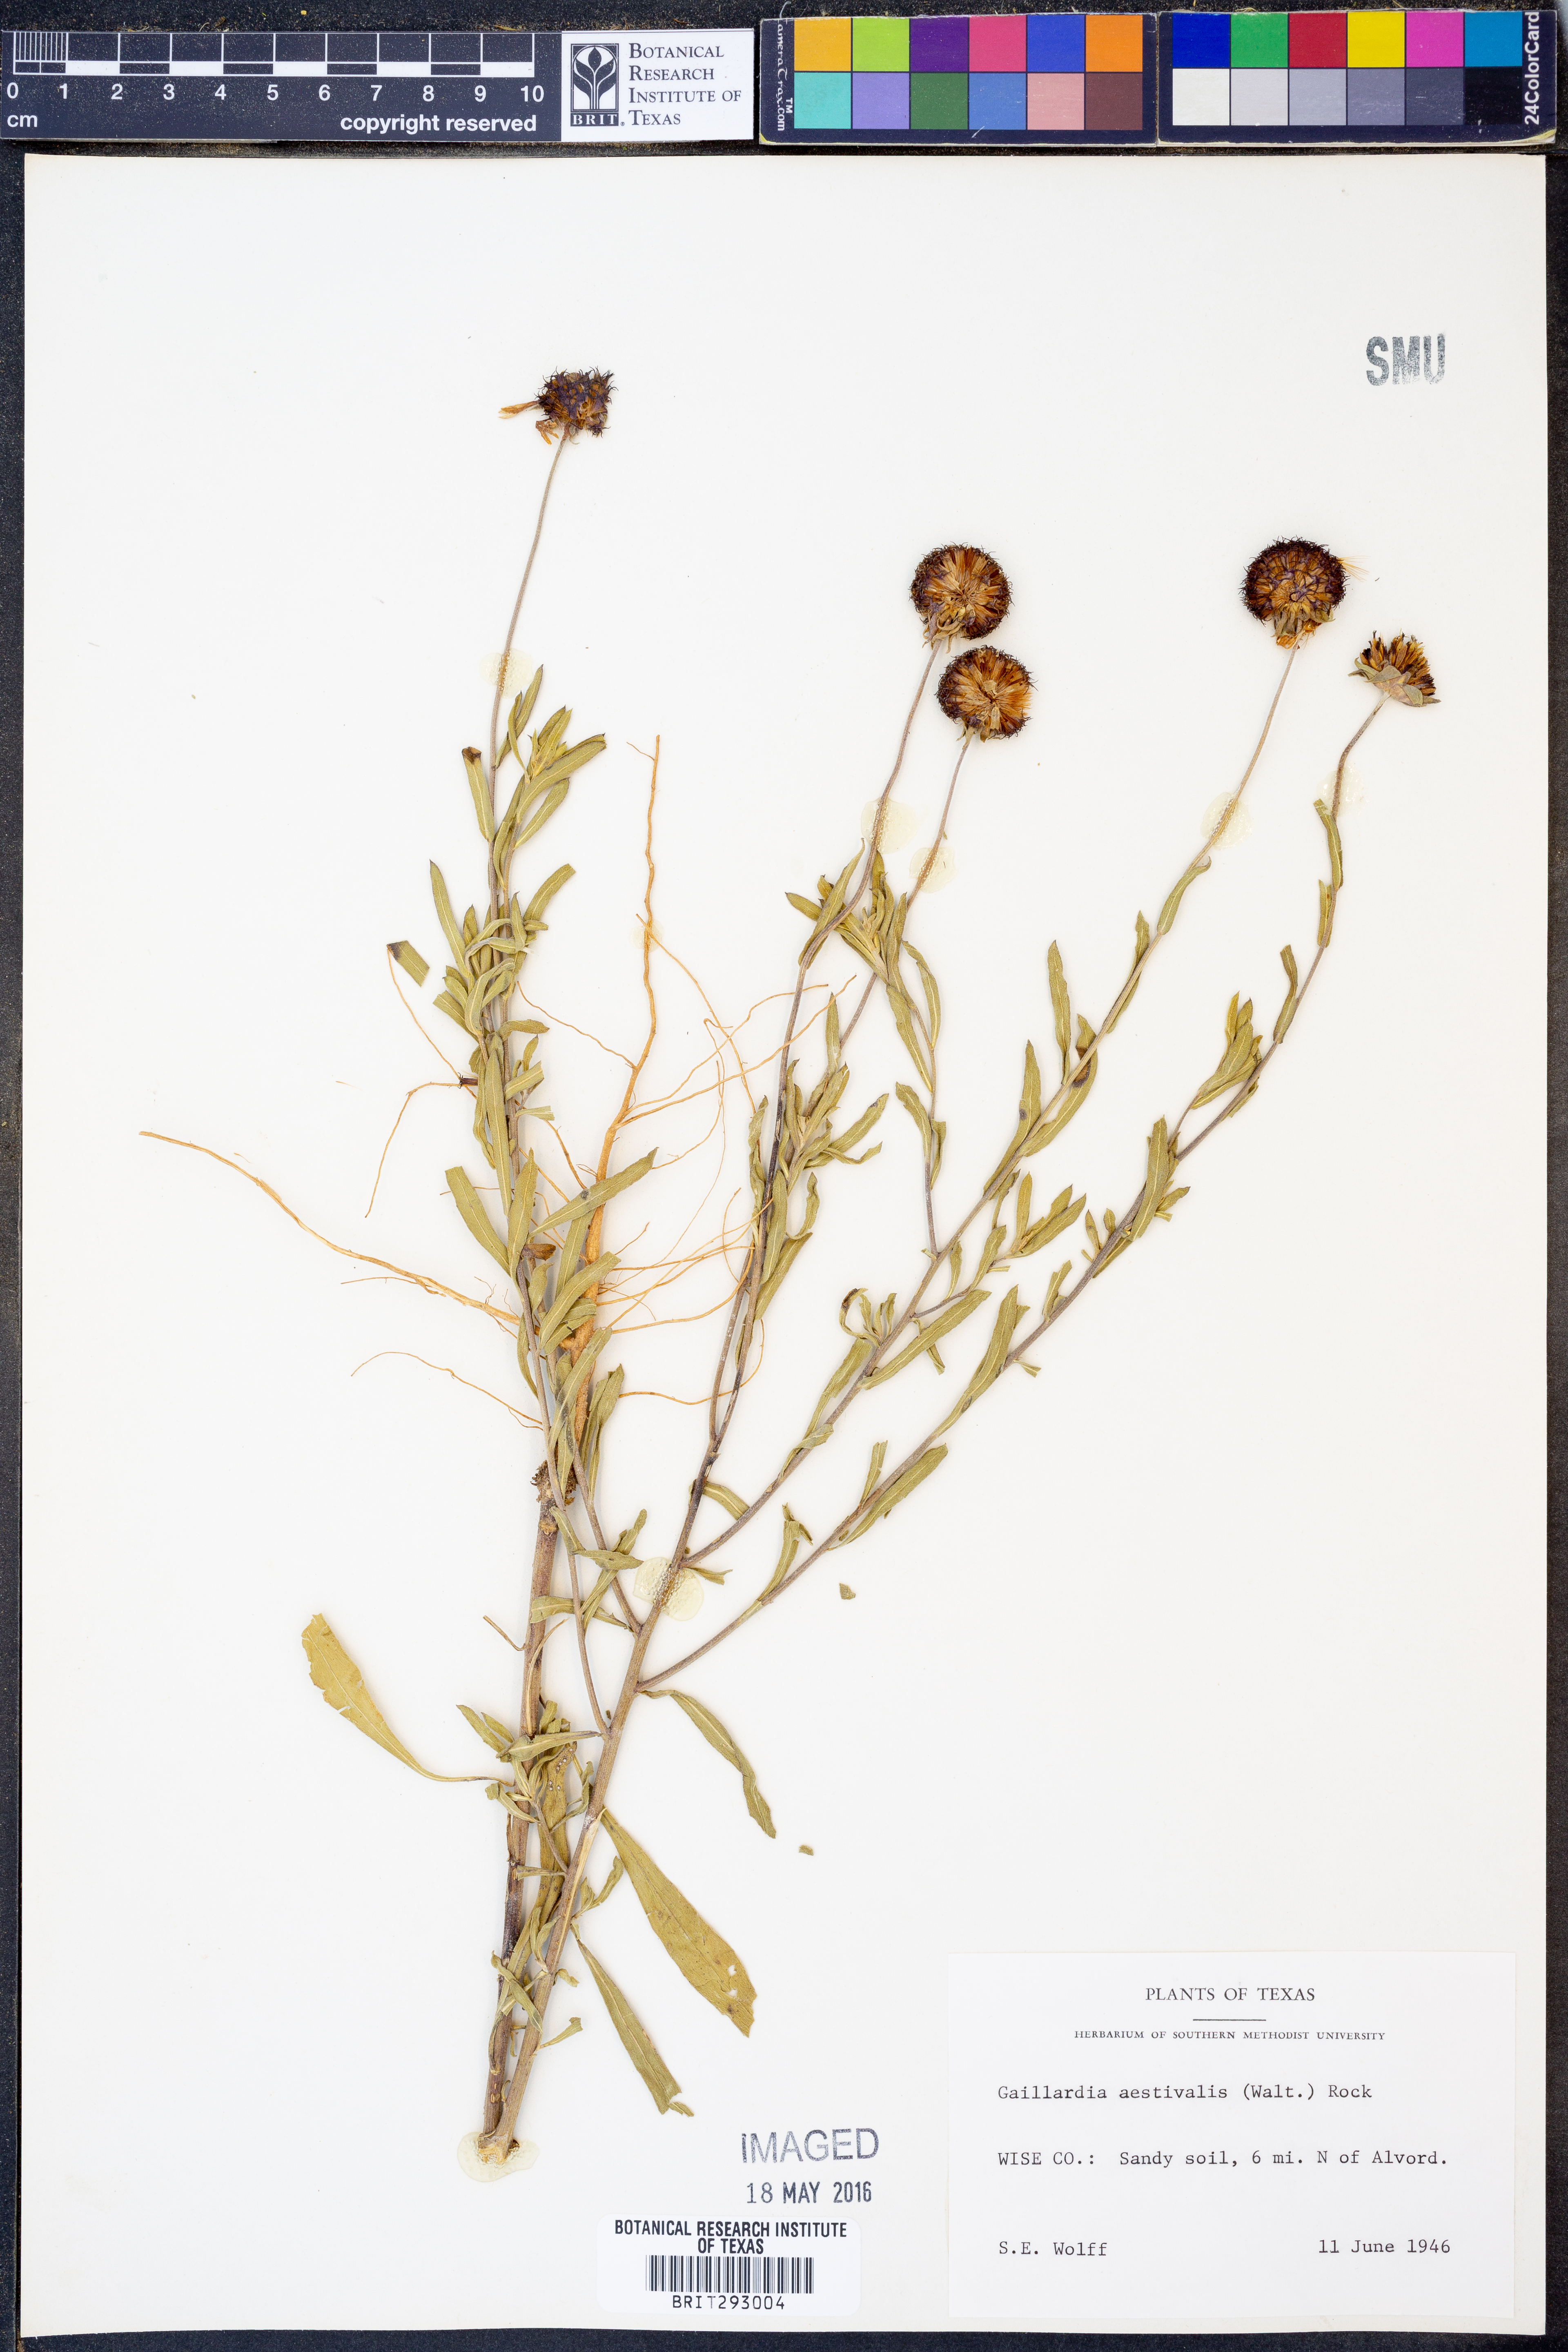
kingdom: Plantae
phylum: Tracheophyta
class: Magnoliopsida
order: Asterales
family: Asteraceae
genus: Gaillardia
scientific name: Gaillardia aestivalis
